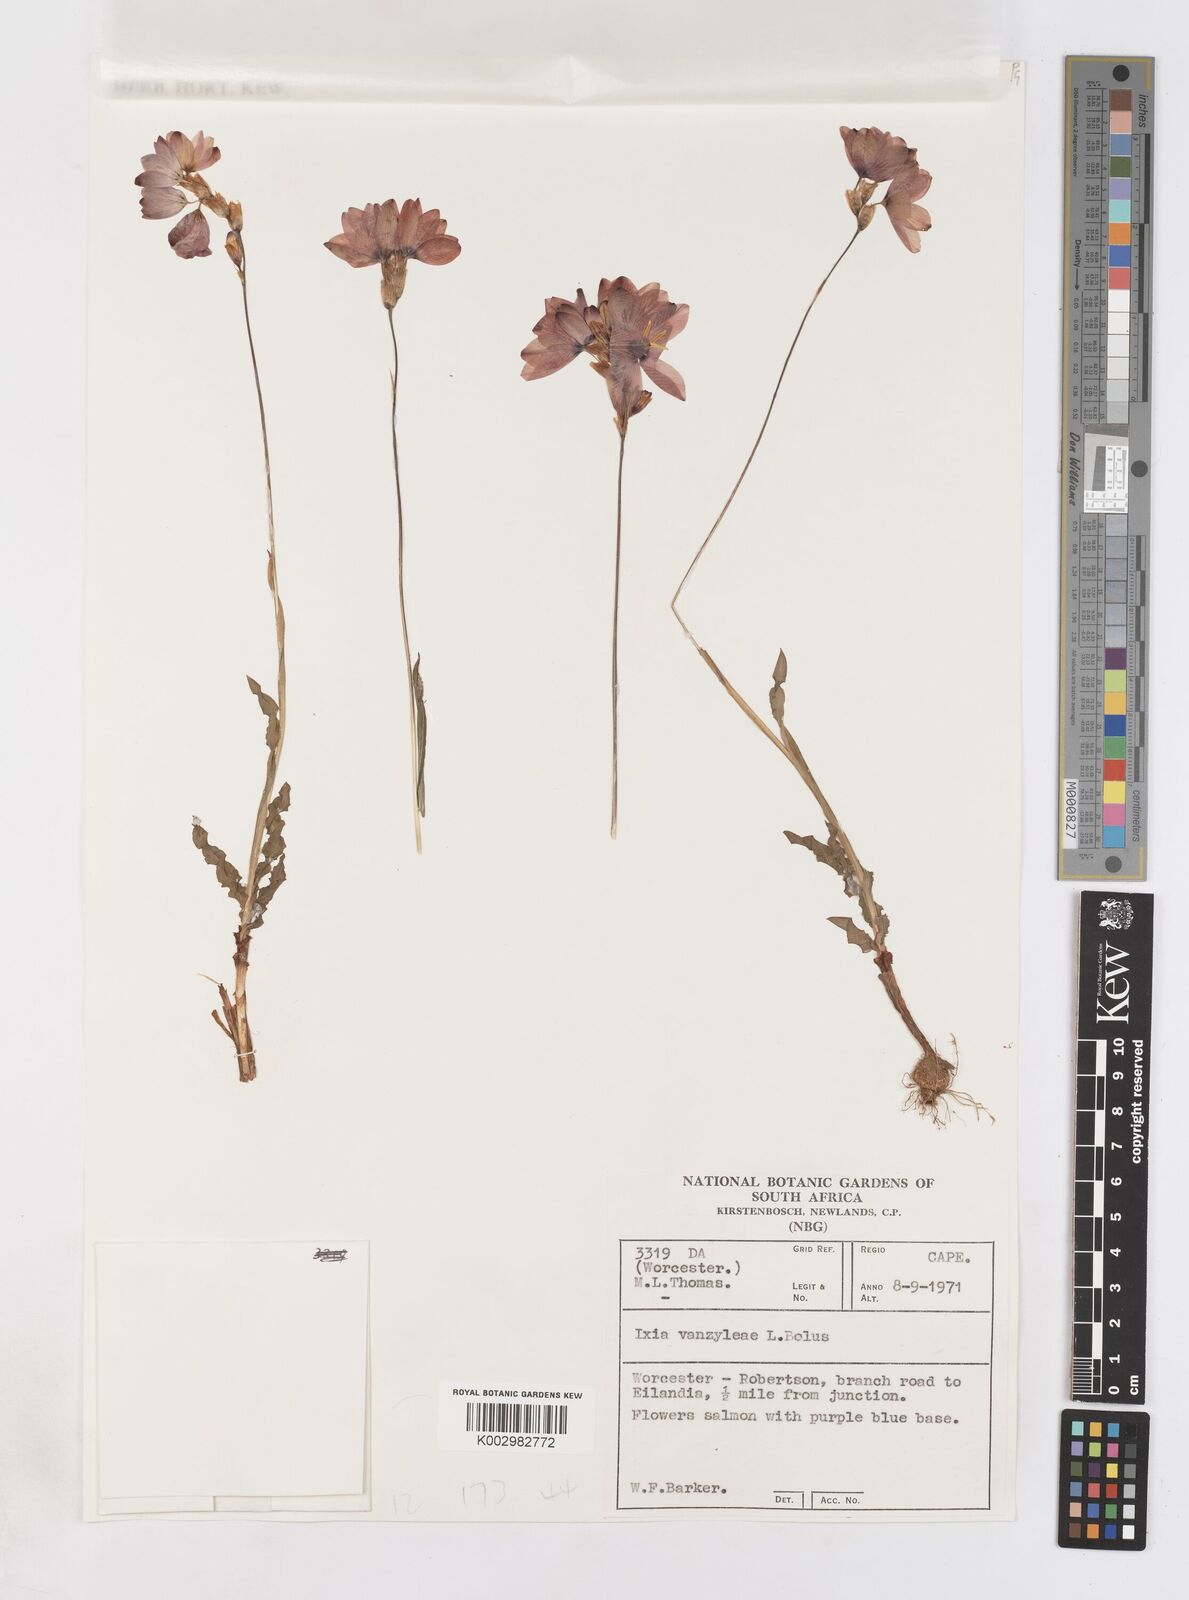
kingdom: Plantae
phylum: Tracheophyta
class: Liliopsida
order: Asparagales
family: Iridaceae
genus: Ixia
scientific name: Ixia vanzijliae
